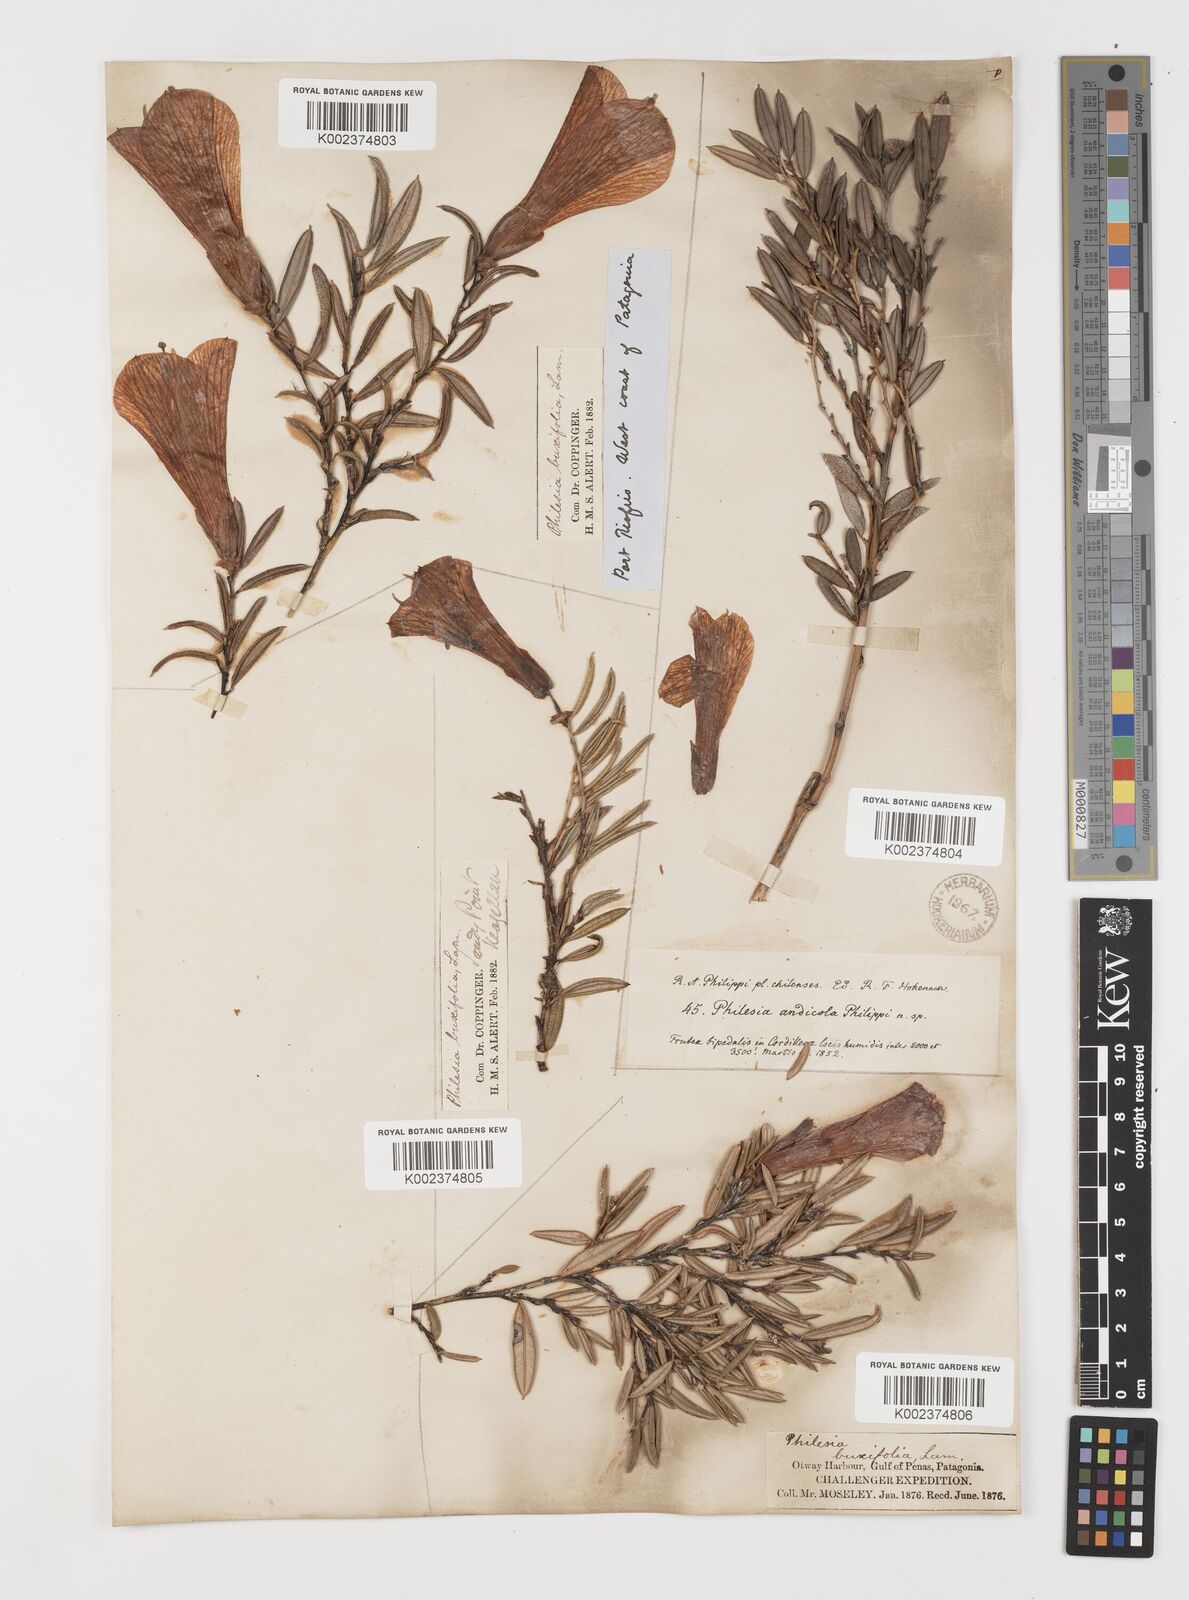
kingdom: Plantae
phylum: Tracheophyta
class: Liliopsida
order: Liliales
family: Philesiaceae
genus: Philesia
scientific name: Philesia magellanica
